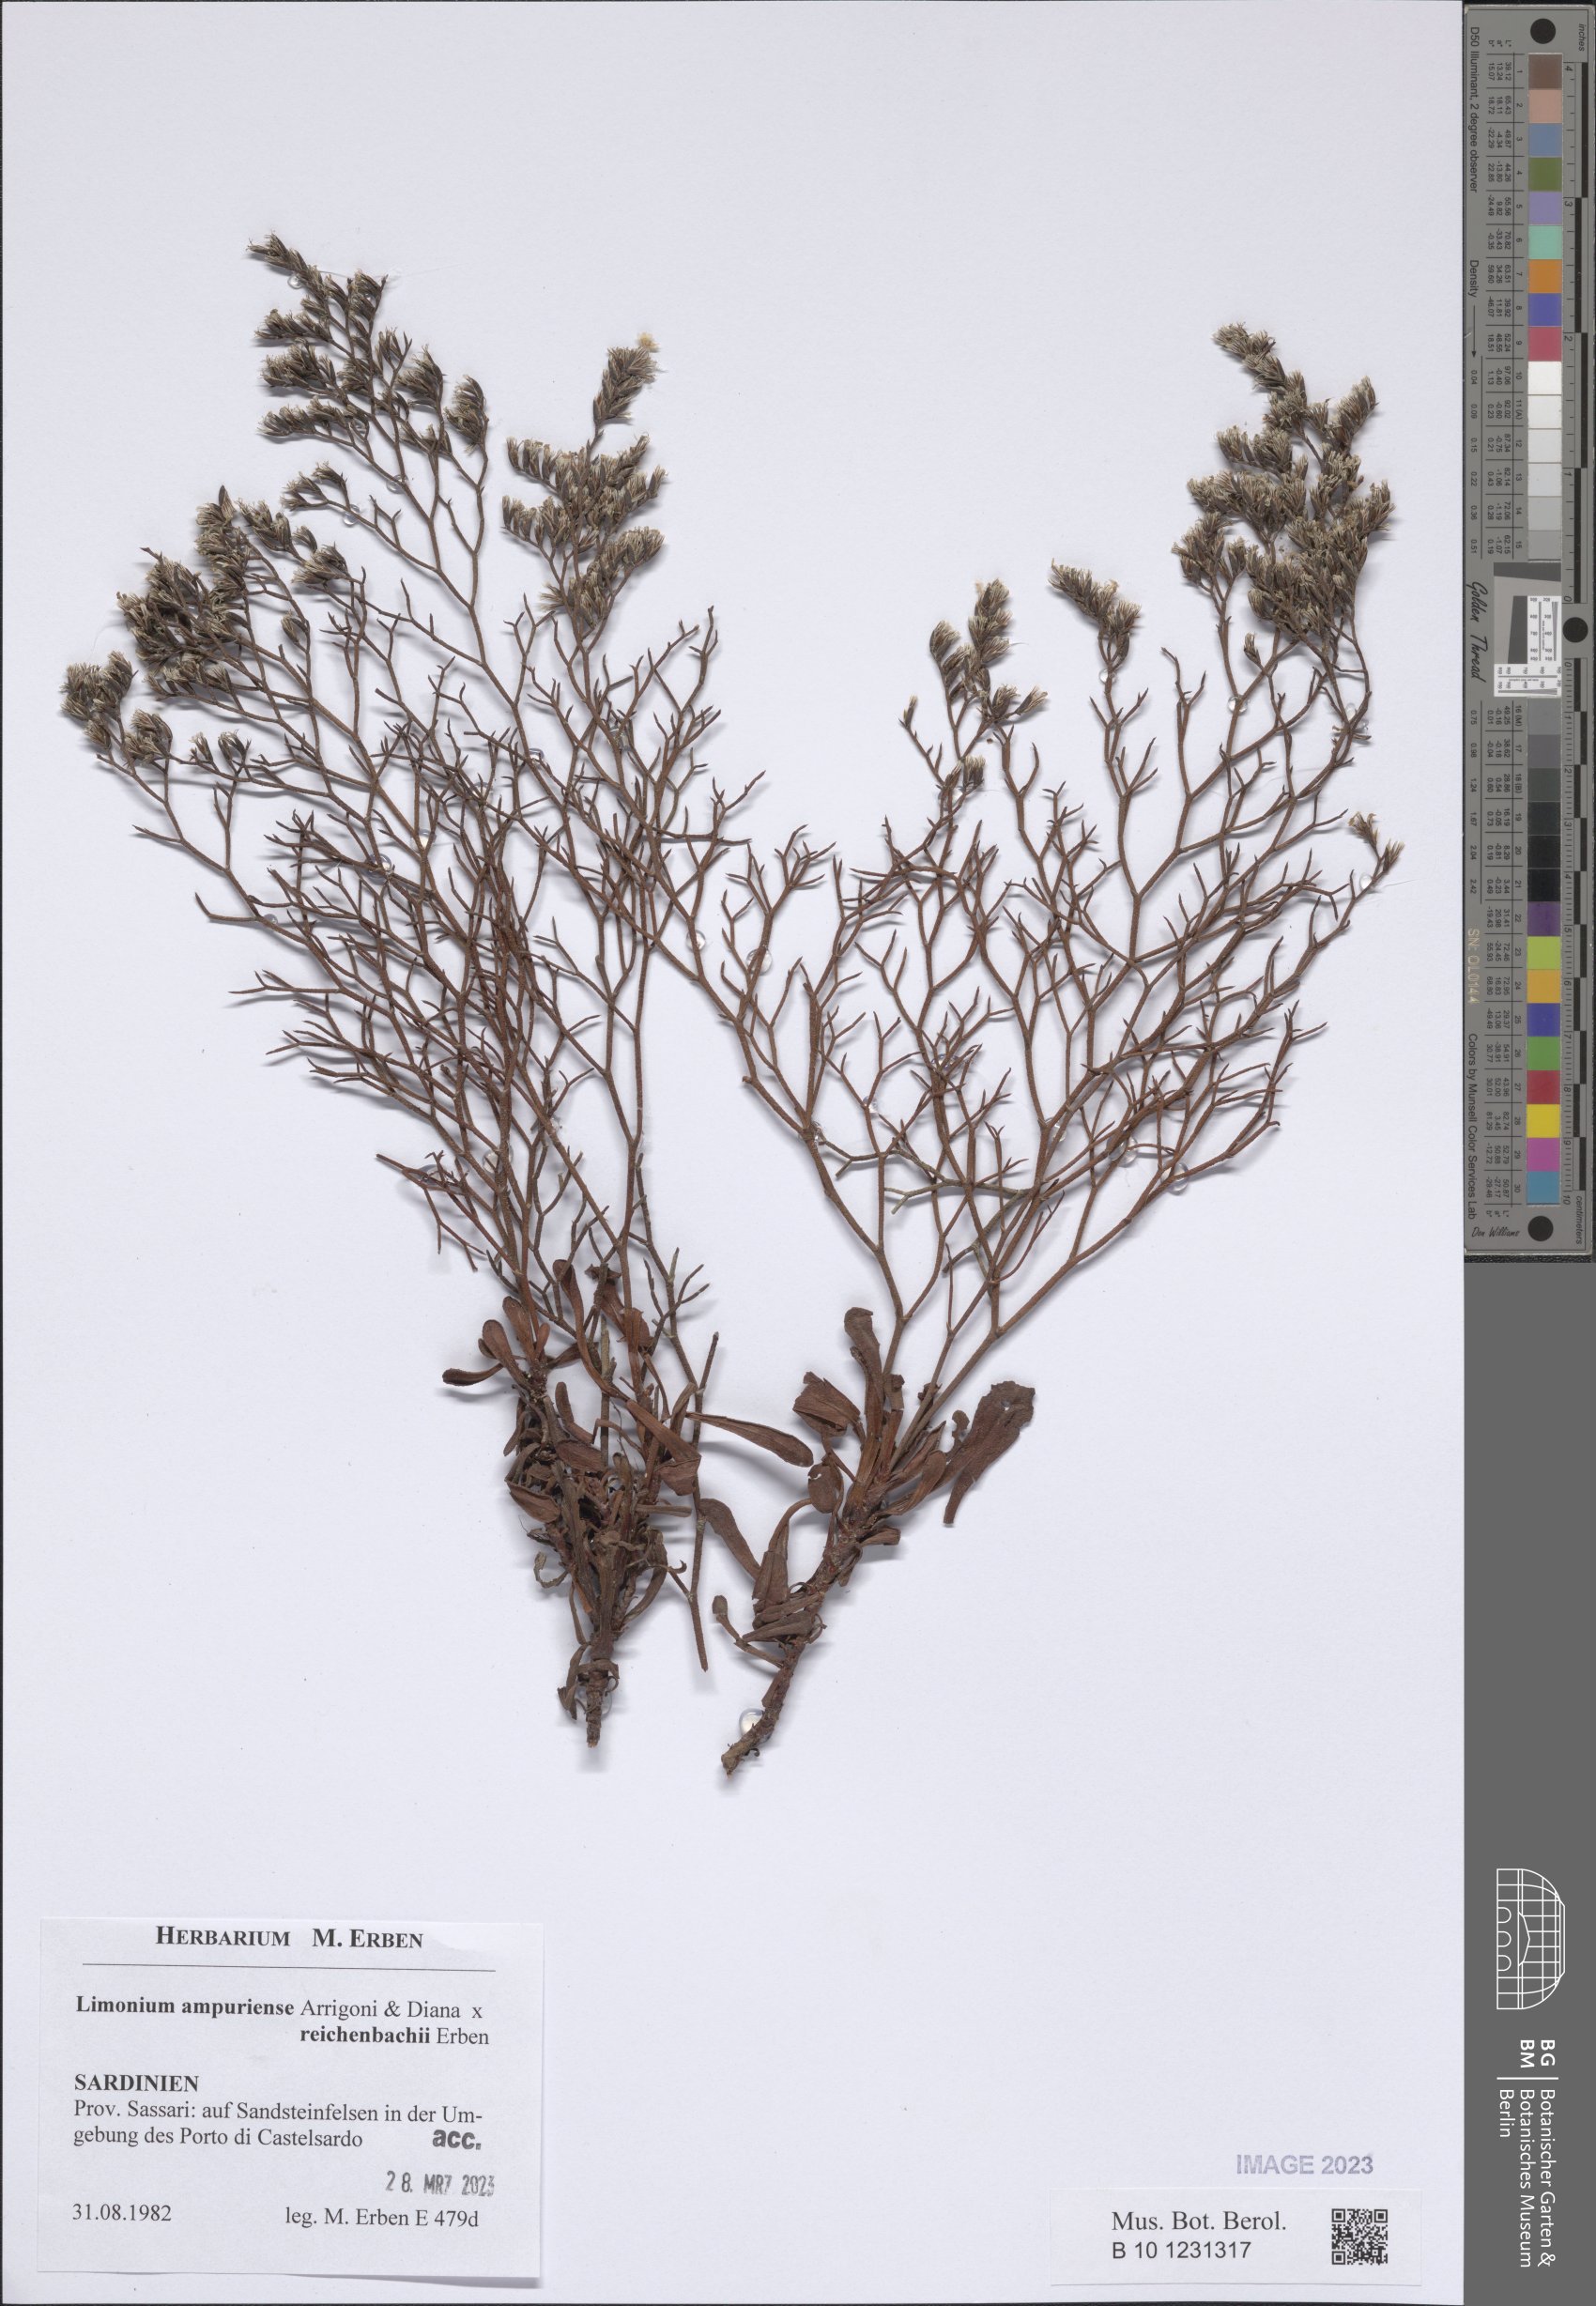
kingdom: Plantae
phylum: Tracheophyta
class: Magnoliopsida
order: Caryophyllales
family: Plumbaginaceae
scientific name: Plumbaginaceae
